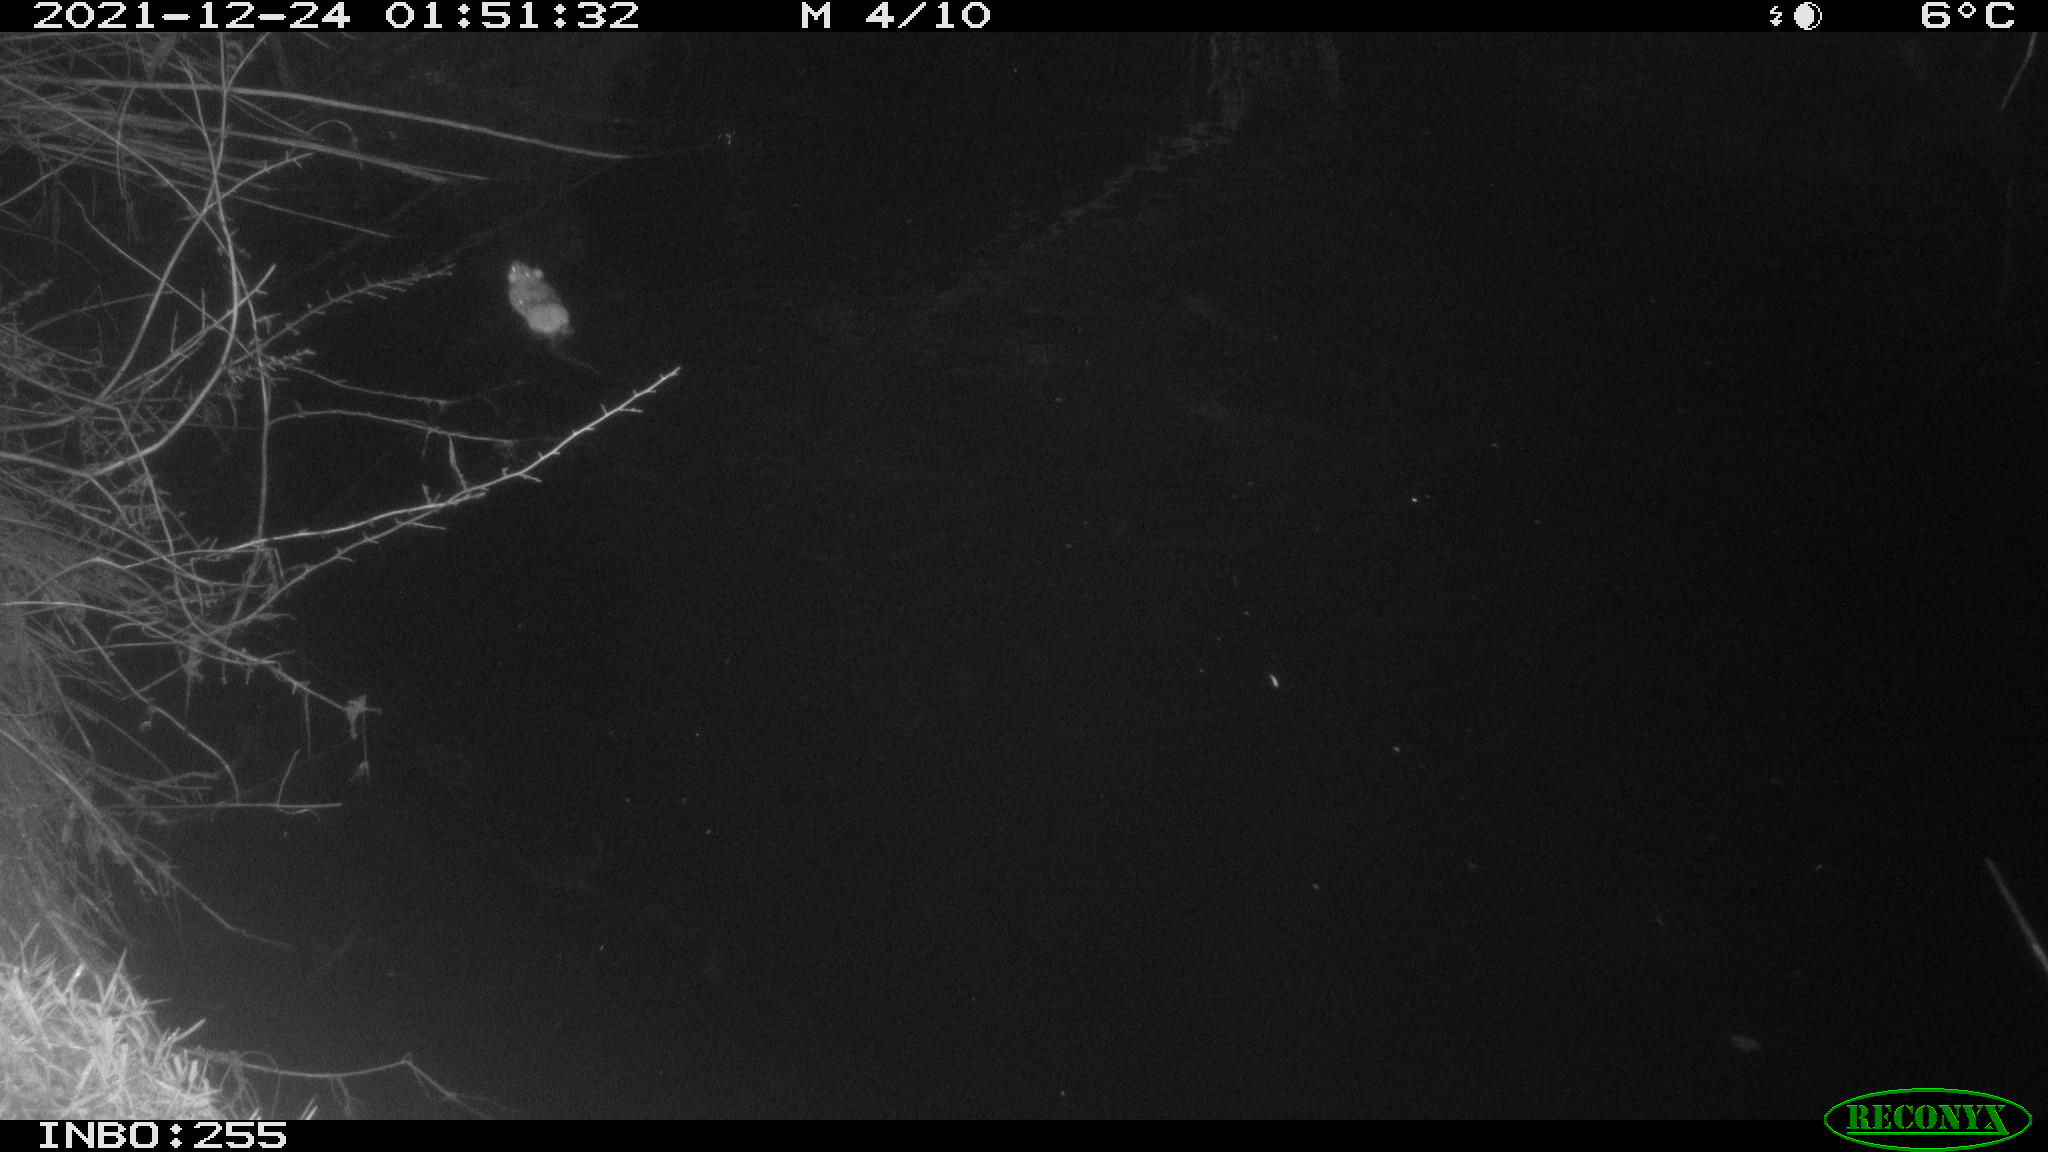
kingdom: Animalia
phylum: Chordata
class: Mammalia
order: Rodentia
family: Muridae
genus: Rattus
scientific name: Rattus norvegicus
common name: Brown rat
